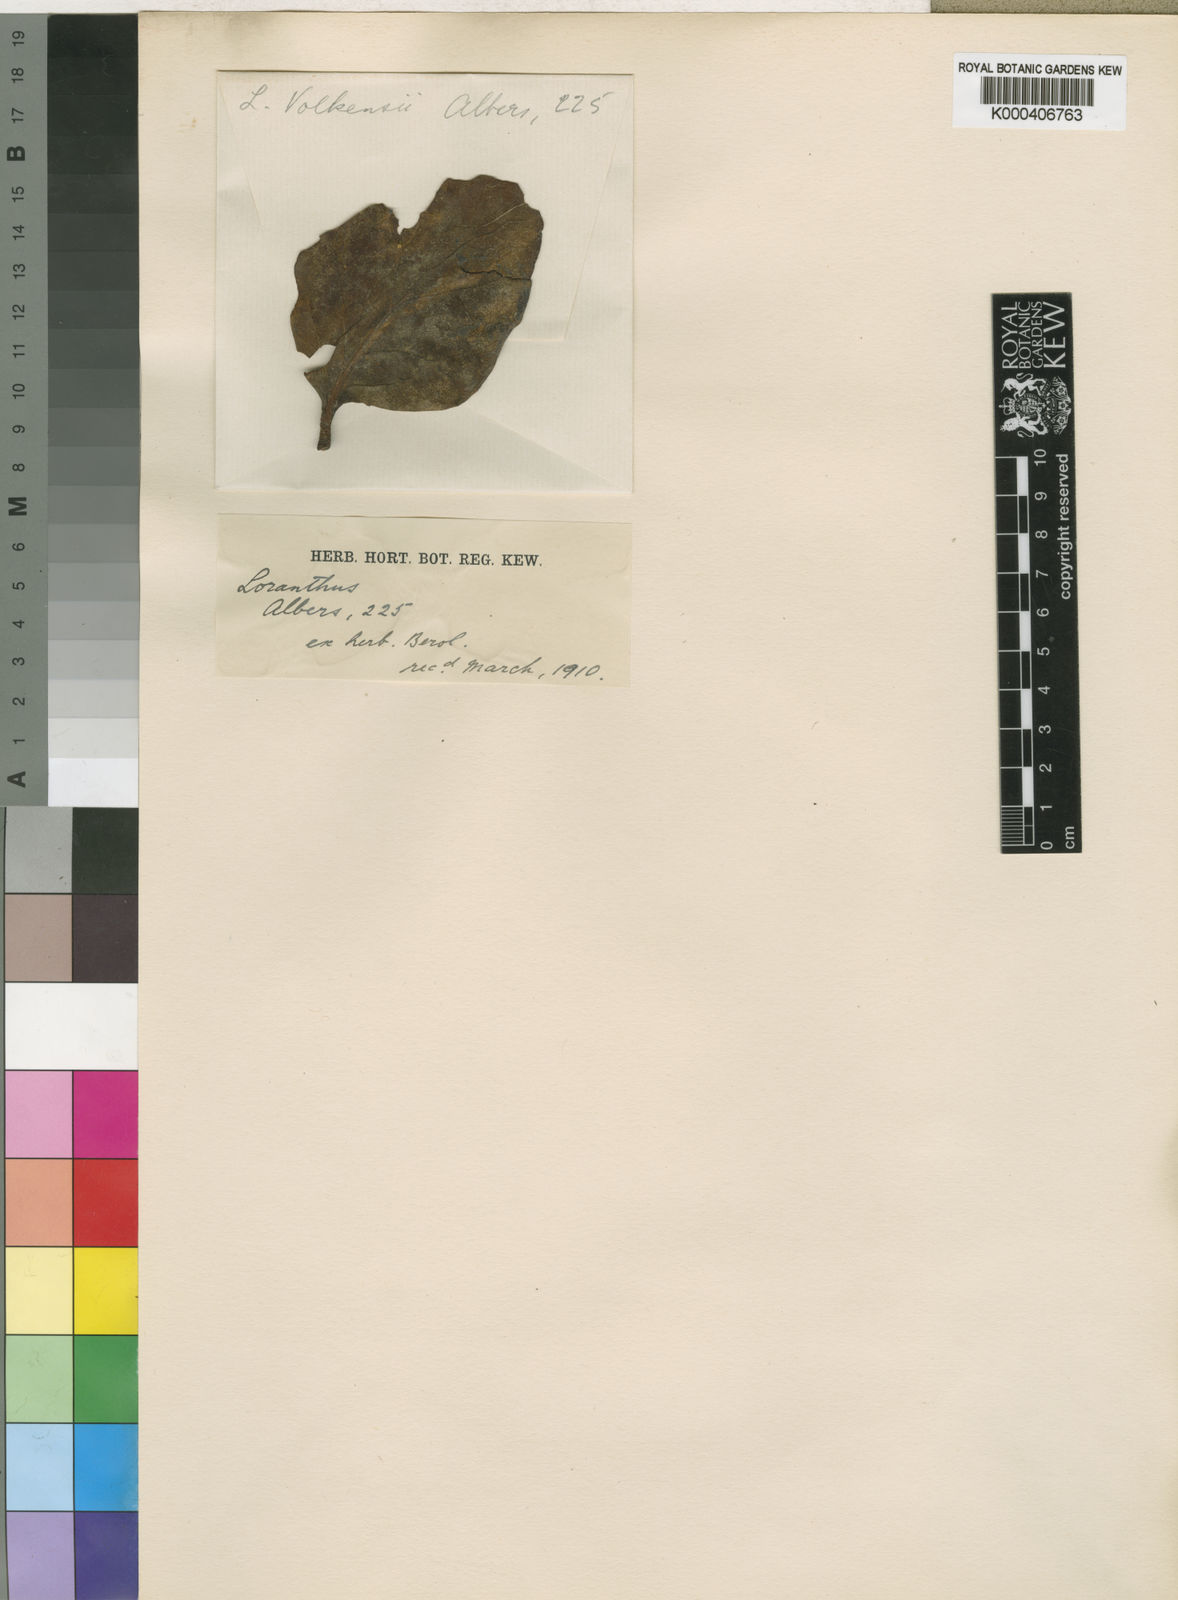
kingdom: Plantae
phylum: Tracheophyta
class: Magnoliopsida
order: Santalales
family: Loranthaceae
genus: Agelanthus
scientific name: Agelanthus validus
